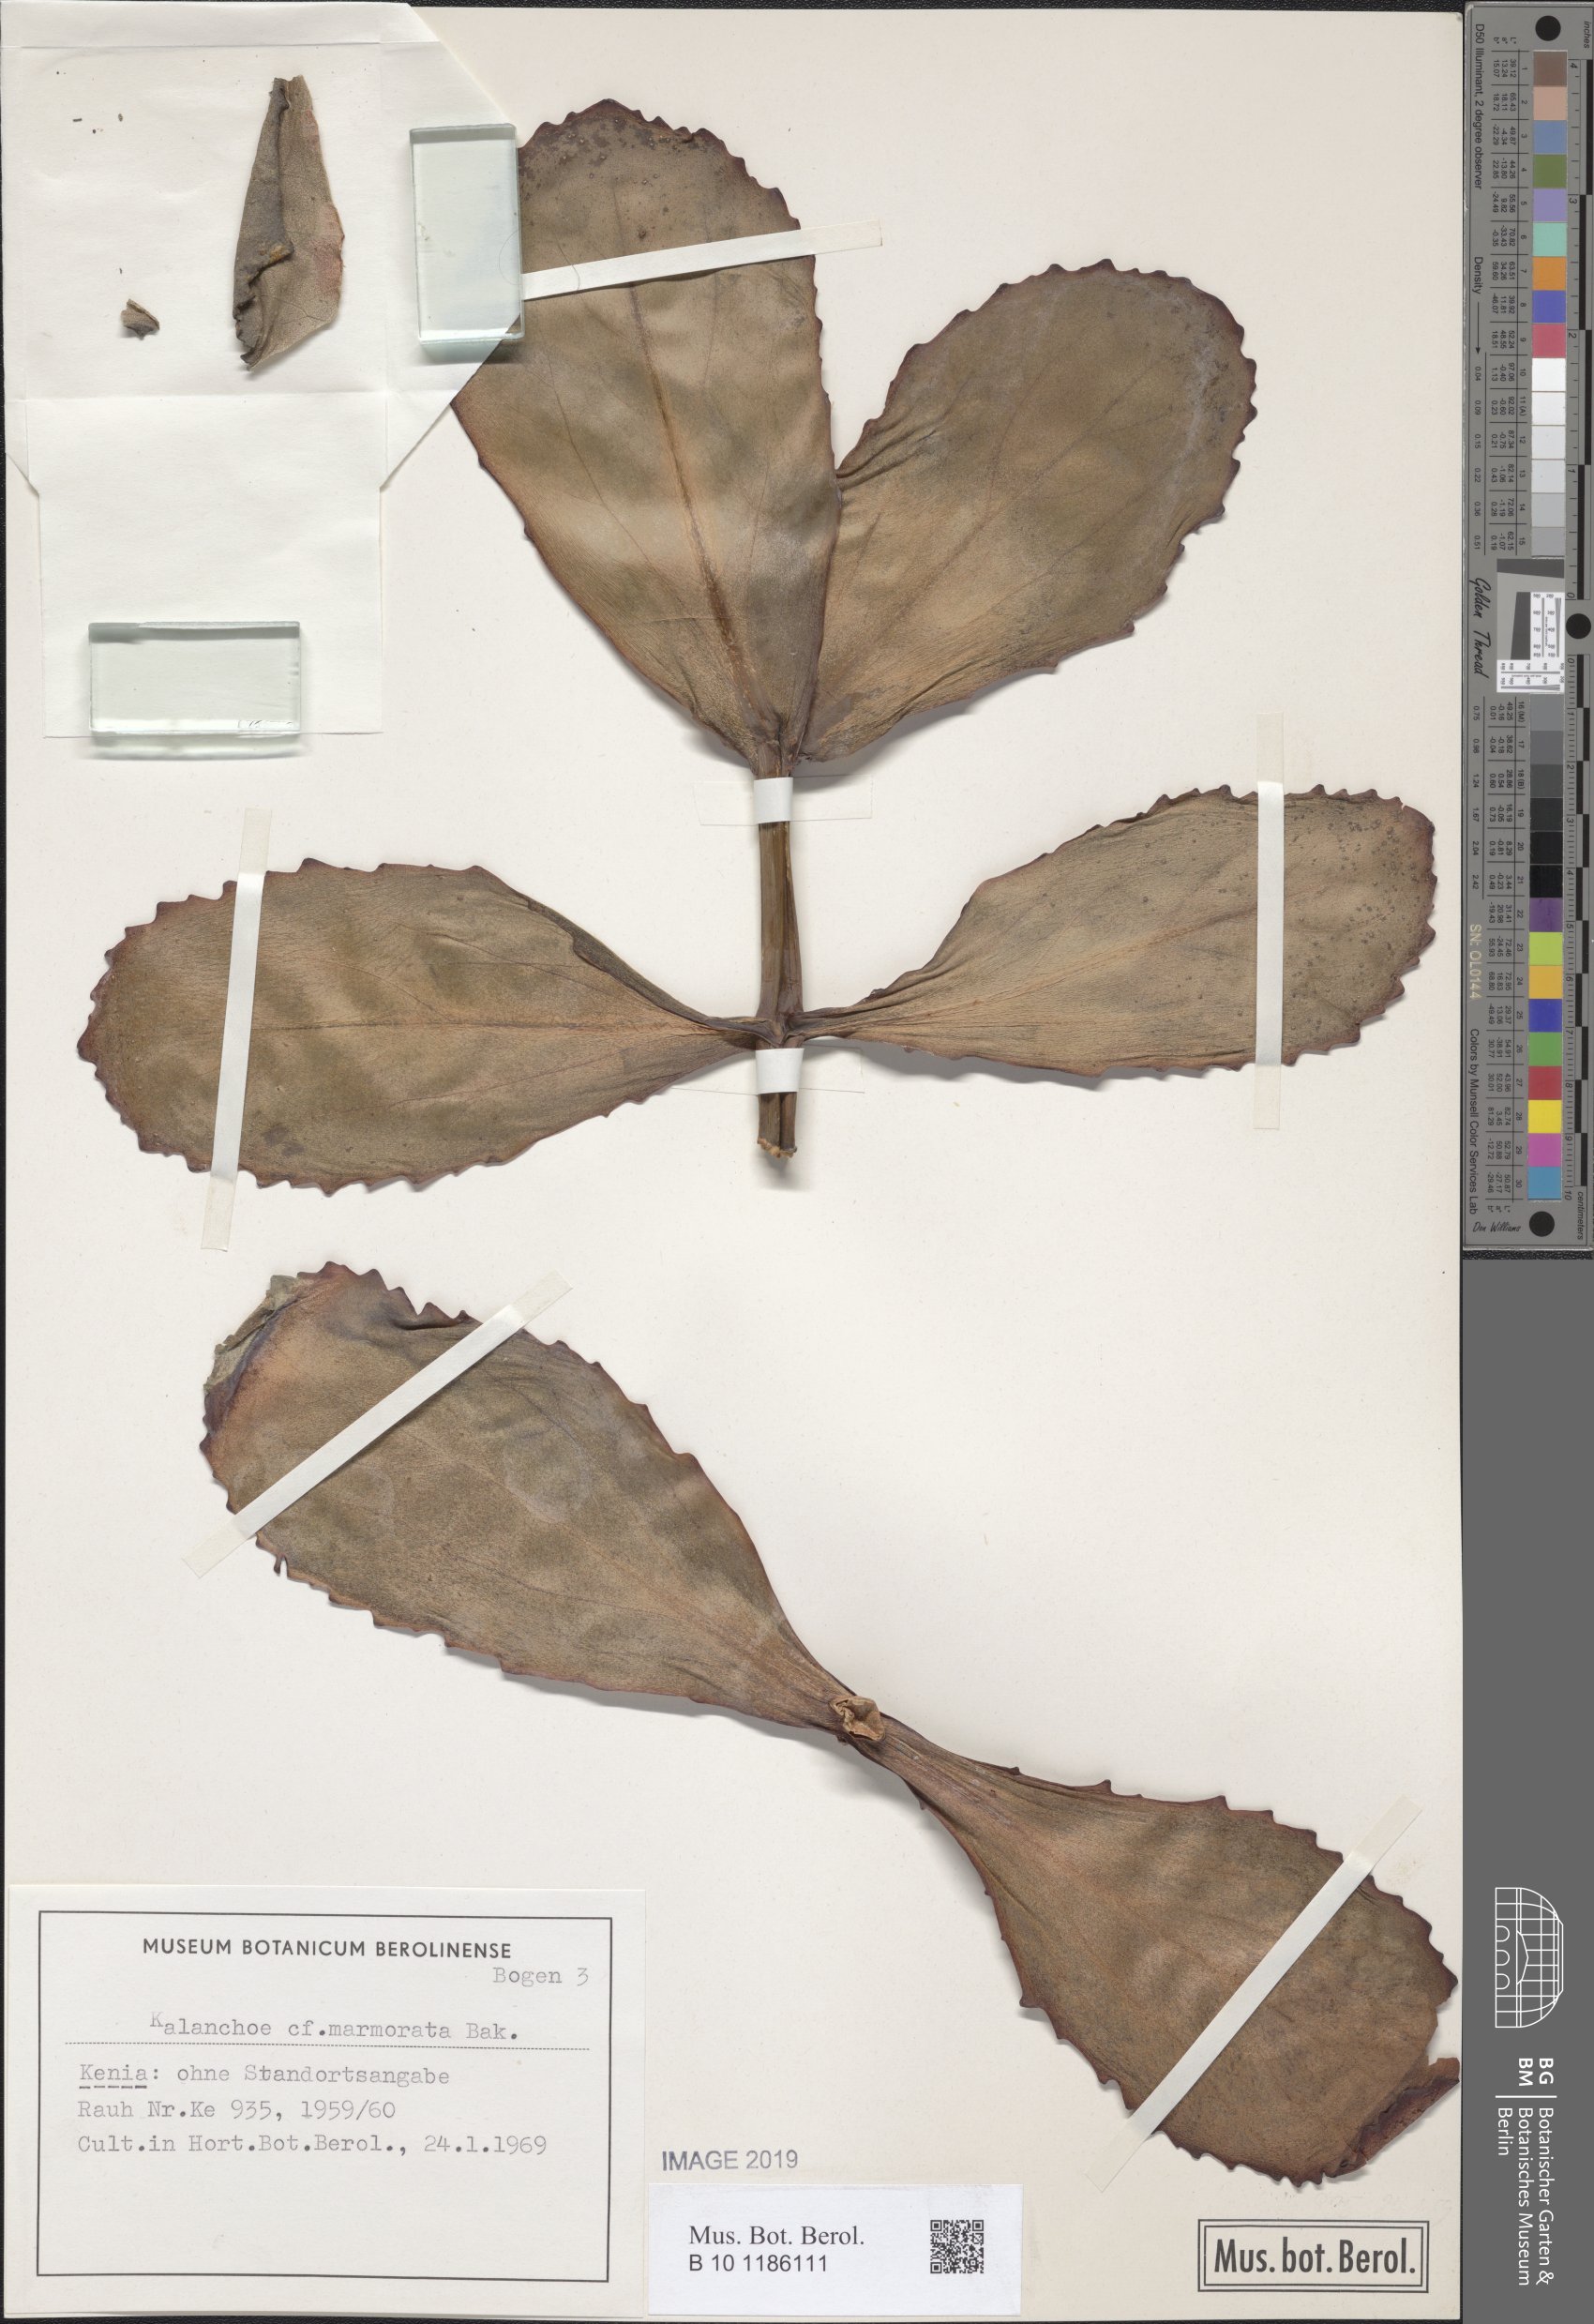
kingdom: Plantae
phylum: Tracheophyta
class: Magnoliopsida
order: Saxifragales
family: Crassulaceae
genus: Kalanchoe
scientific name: Kalanchoe marmorata
